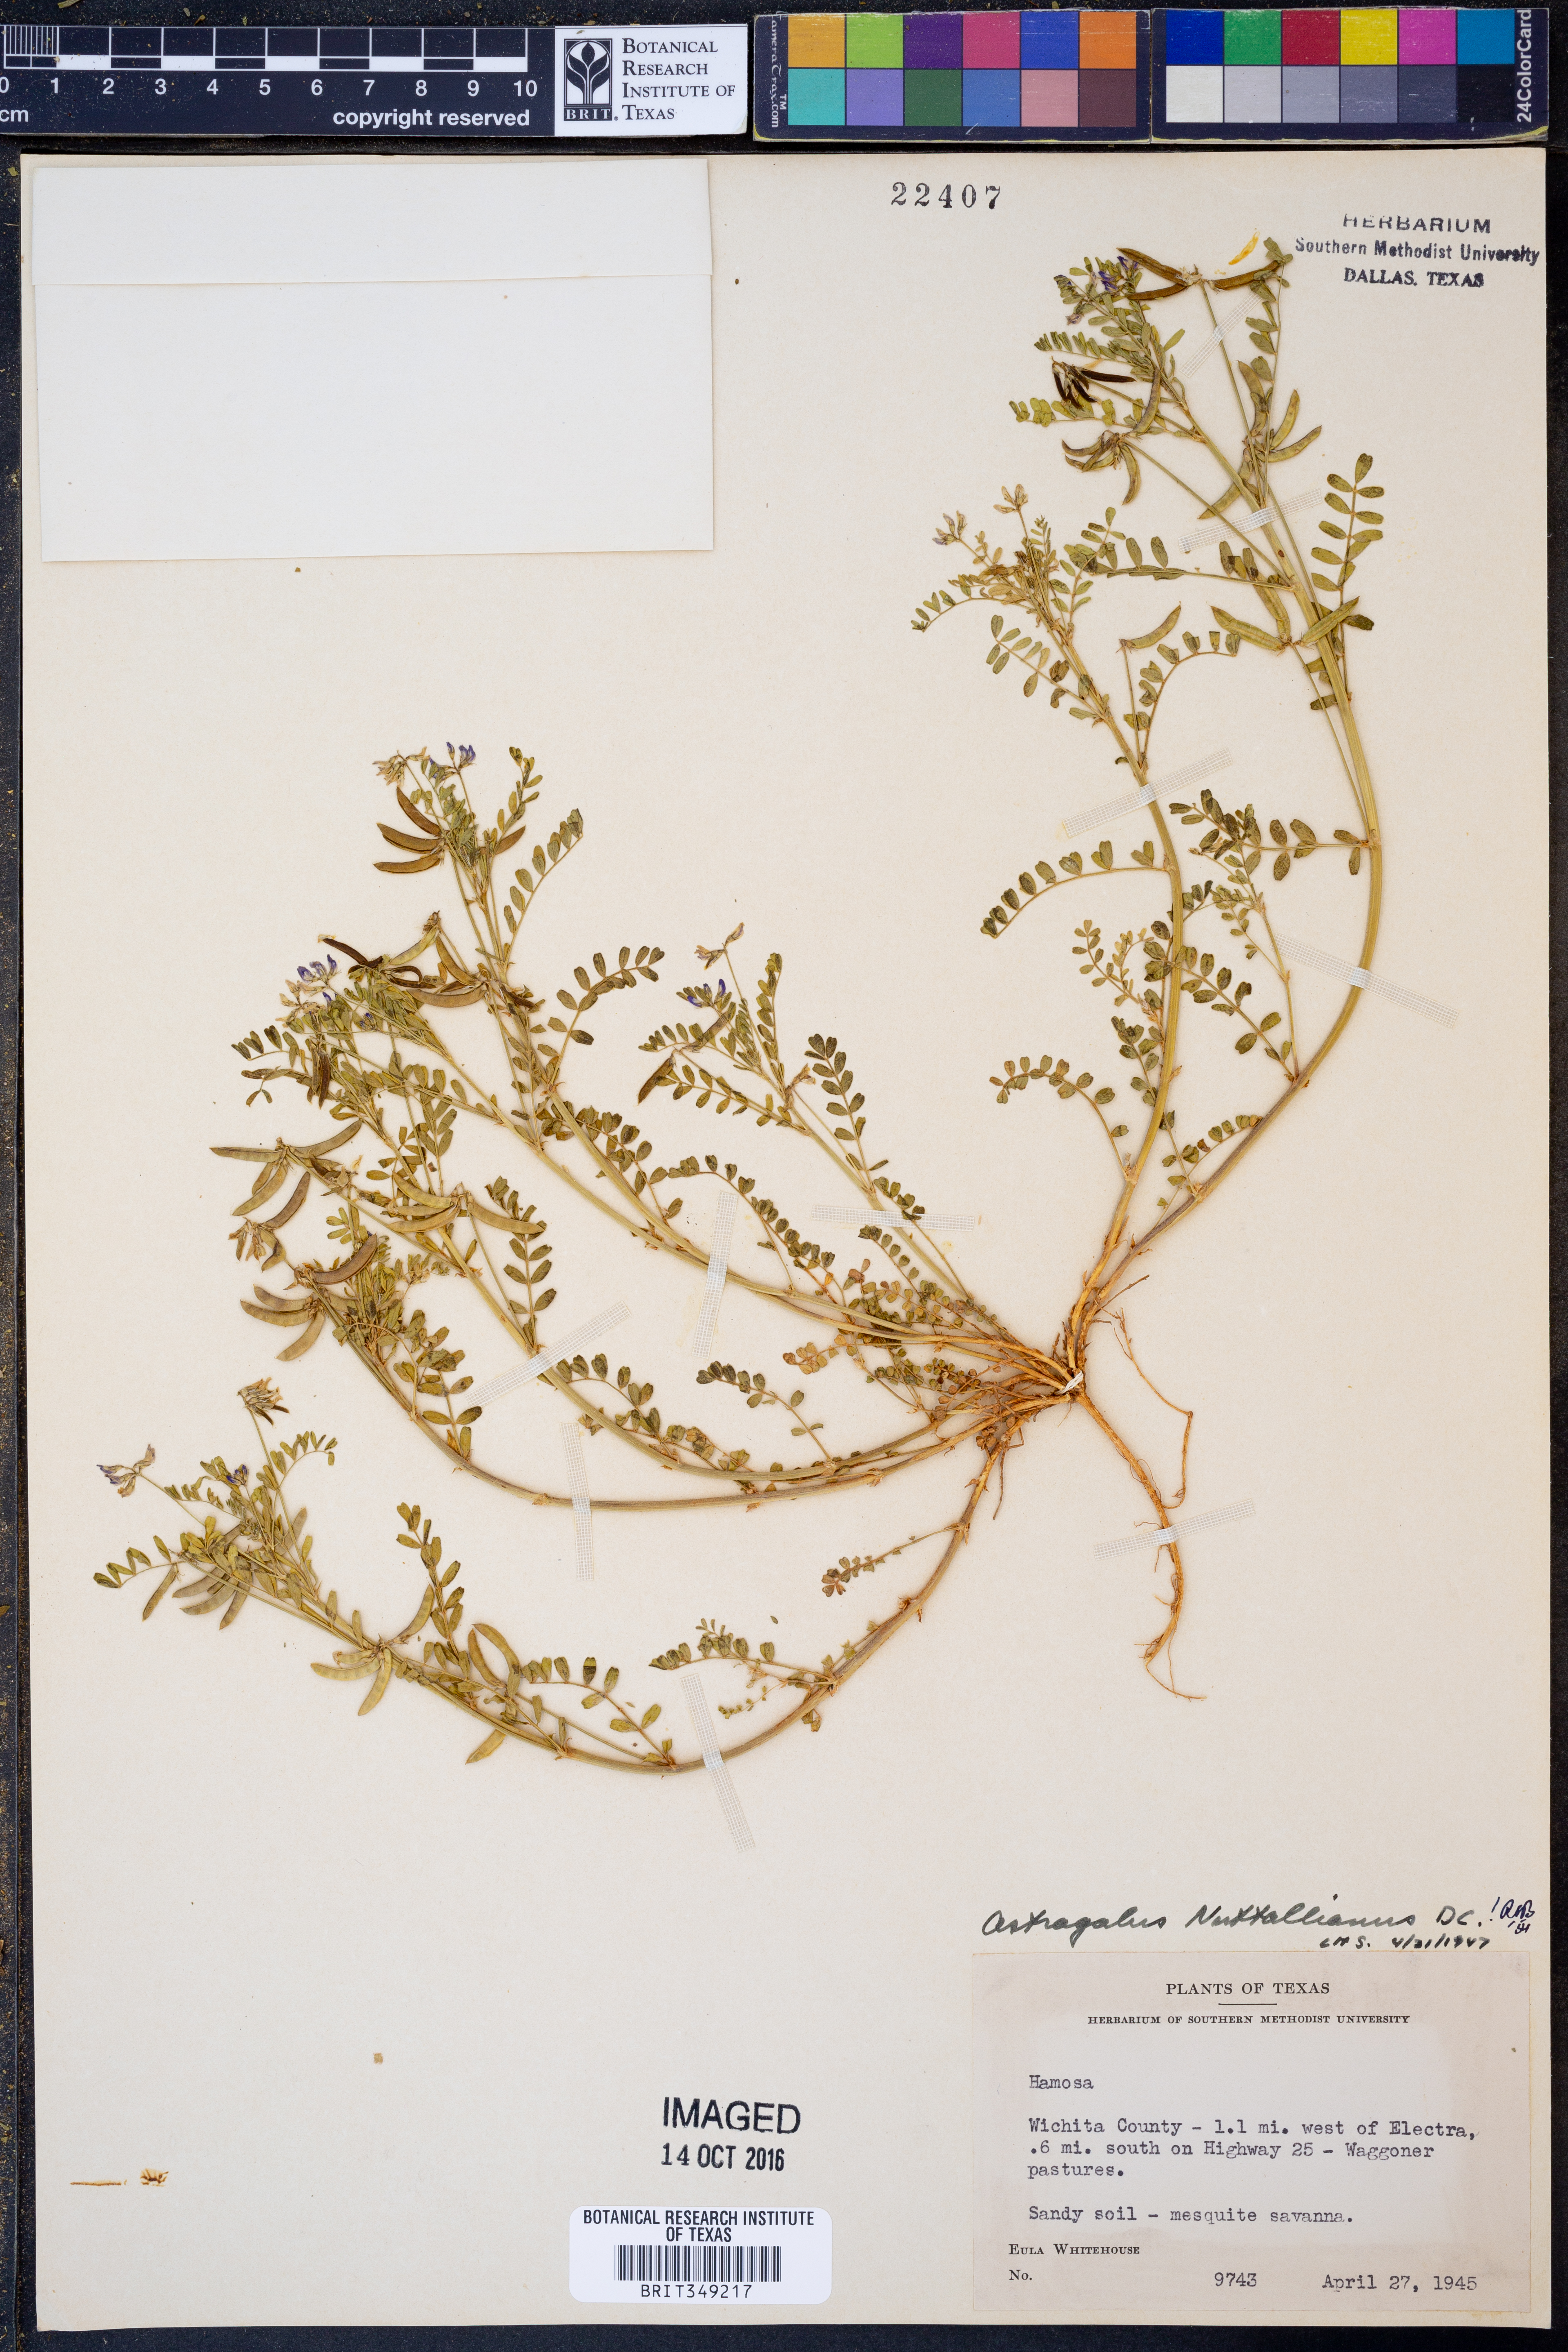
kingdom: Plantae
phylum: Tracheophyta
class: Magnoliopsida
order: Fabales
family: Fabaceae
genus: Astragalus
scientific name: Astragalus nuttallianus
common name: Smallflowered milkvetch
